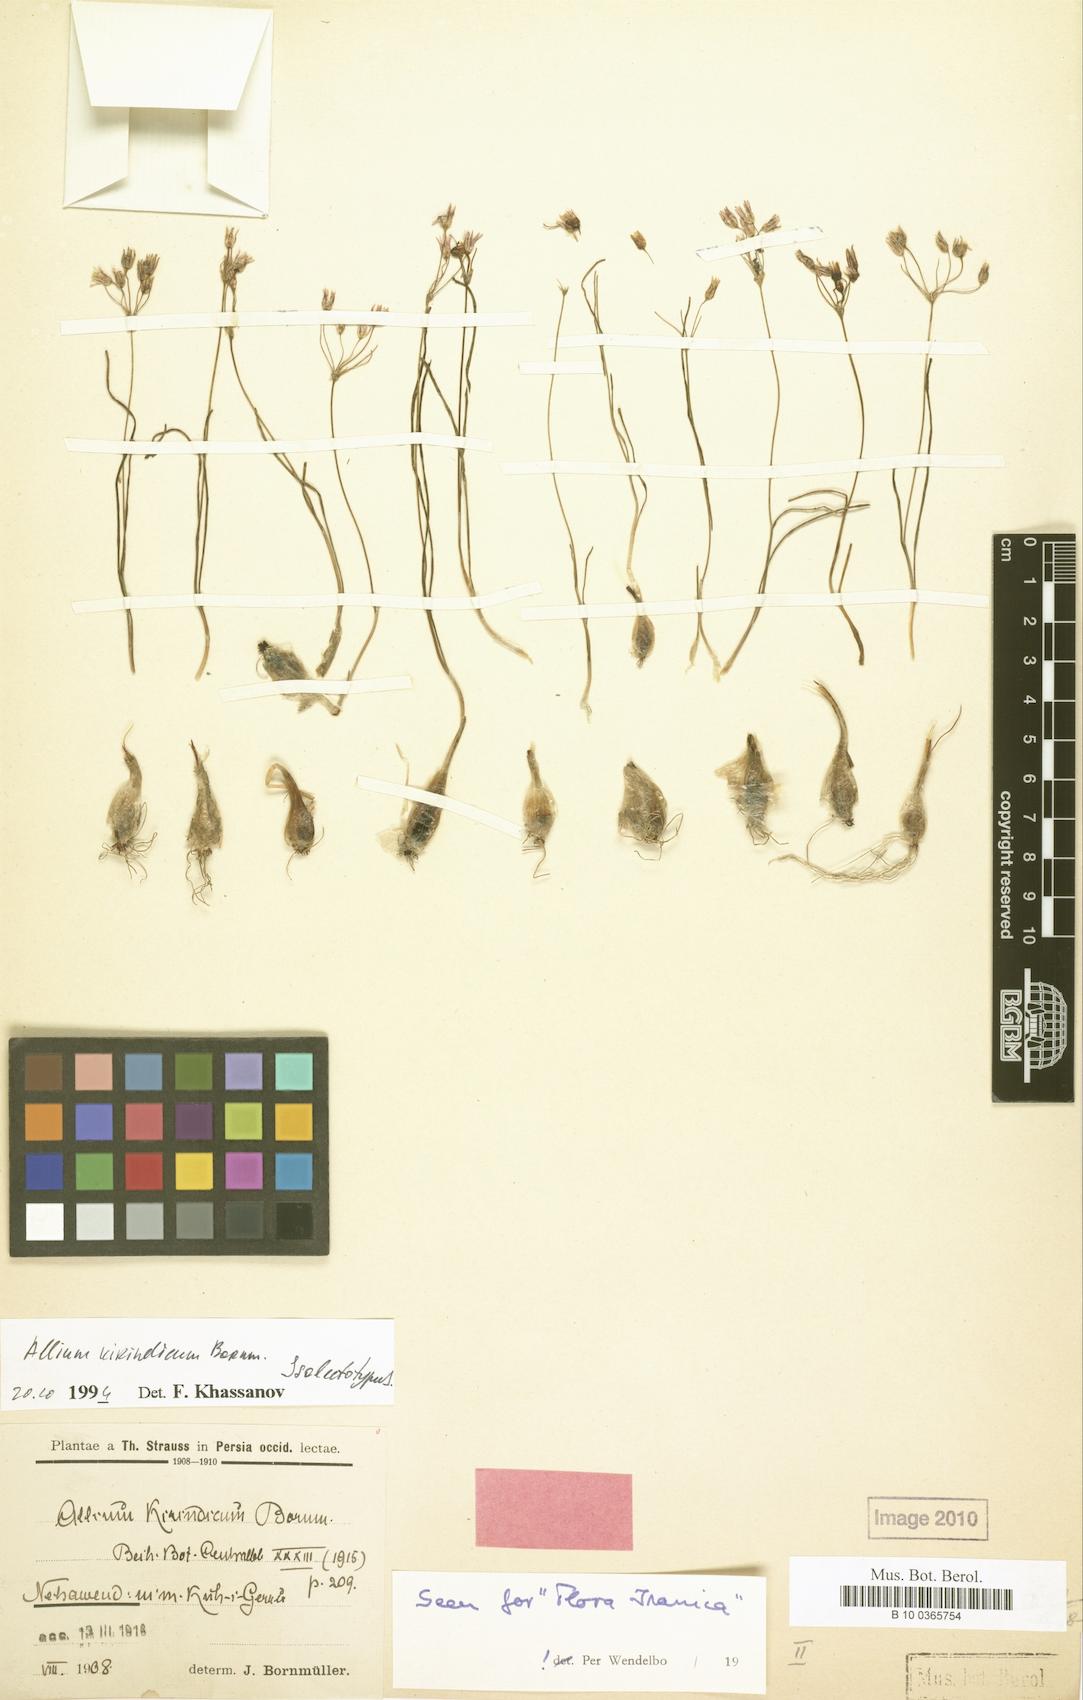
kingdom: Plantae
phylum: Tracheophyta
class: Liliopsida
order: Asparagales
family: Amaryllidaceae
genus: Allium
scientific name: Allium kirindicum
